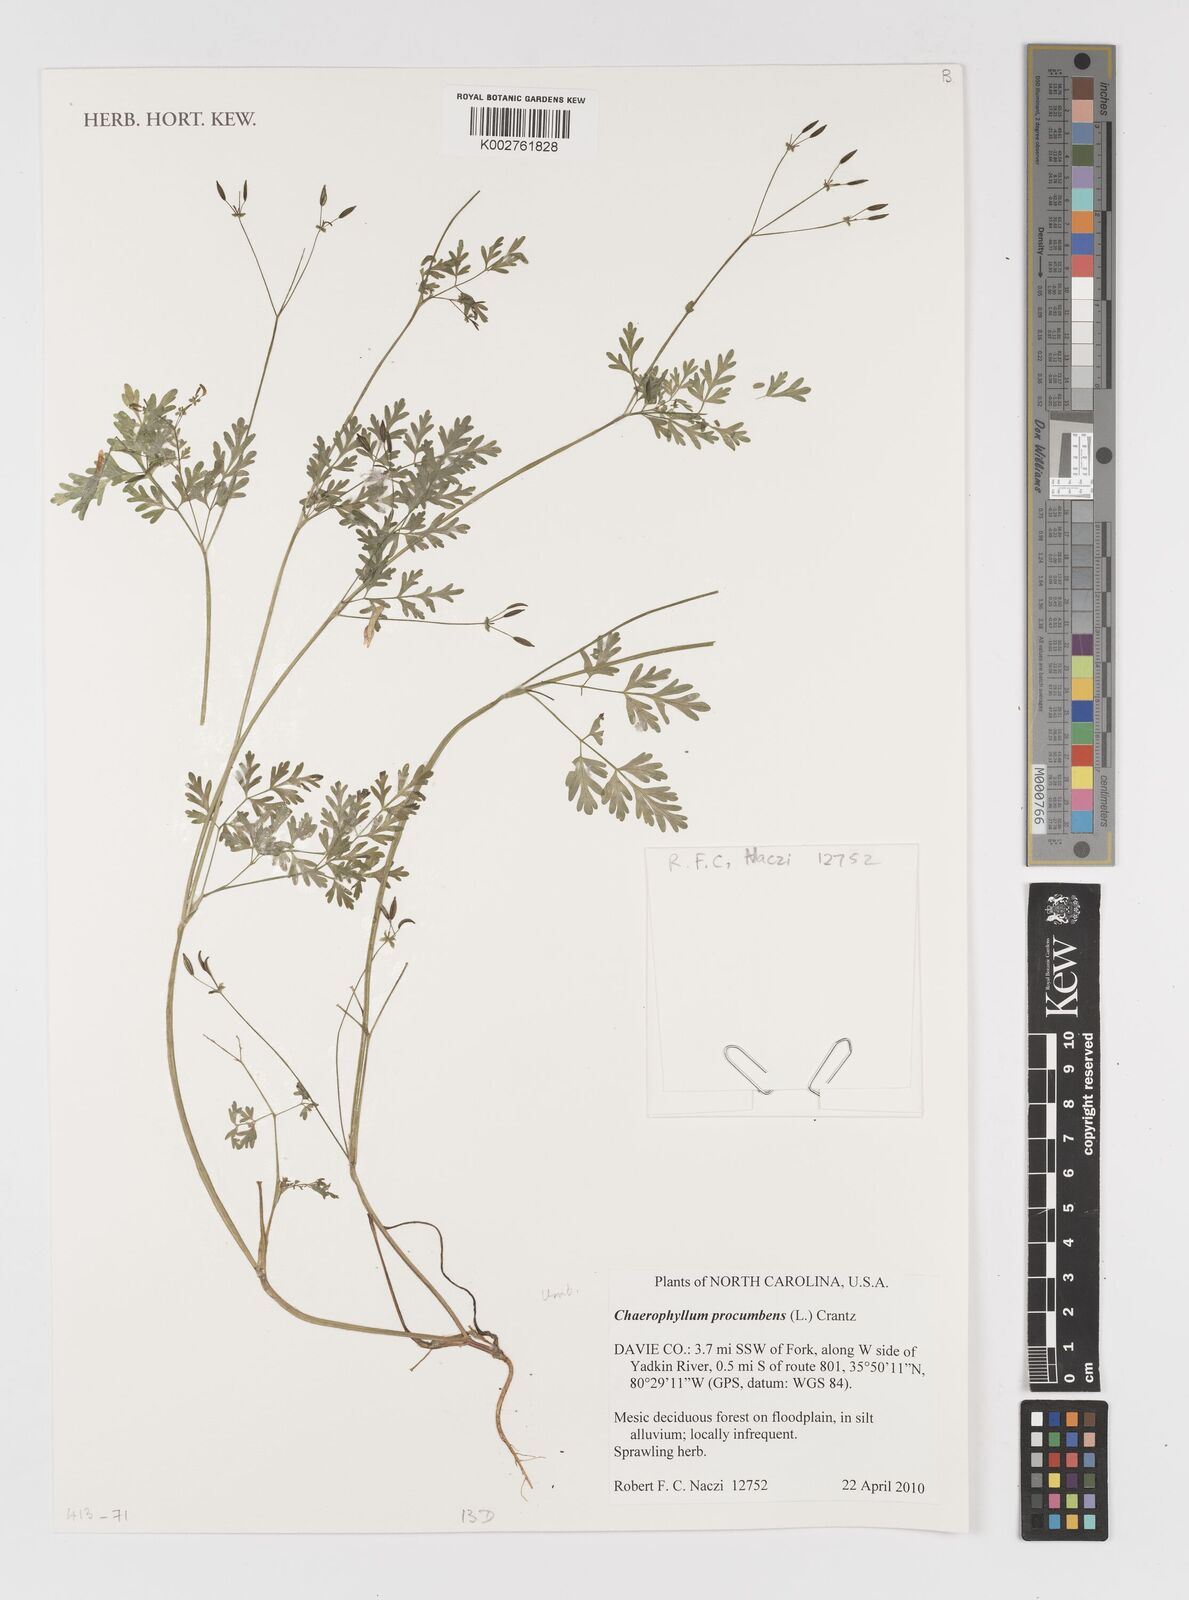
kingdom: Plantae
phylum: Tracheophyta
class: Magnoliopsida
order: Apiales
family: Apiaceae
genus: Chaerophyllum
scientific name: Chaerophyllum procumbens
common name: Spreading chervil
